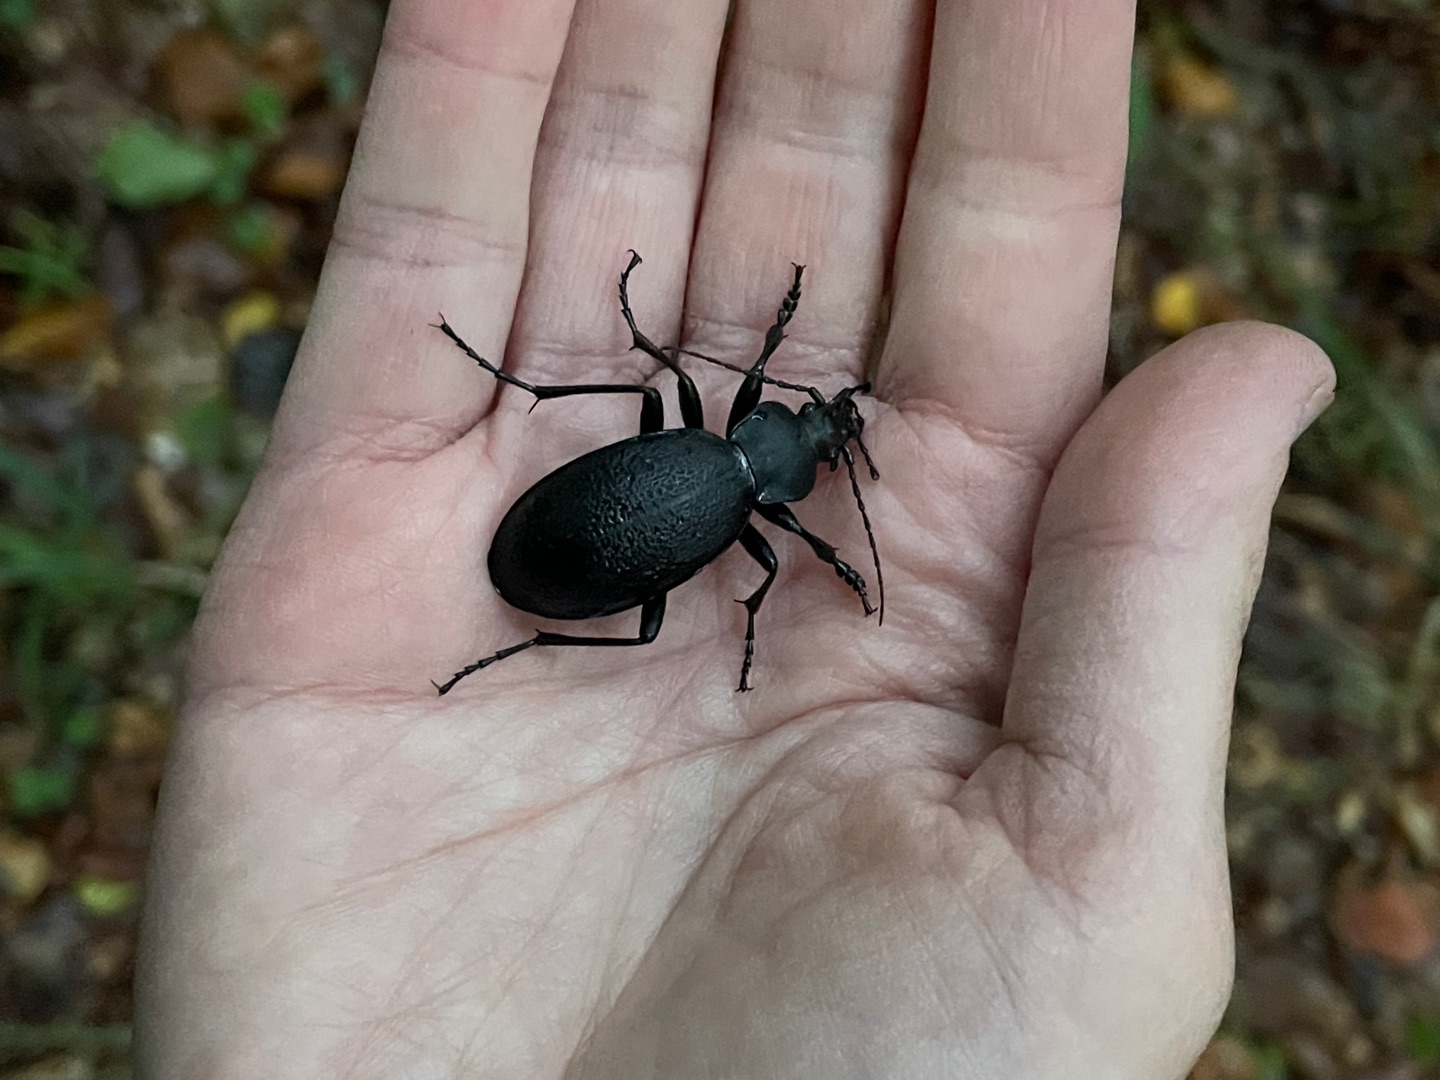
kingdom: Animalia
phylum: Arthropoda
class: Insecta
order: Coleoptera
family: Carabidae
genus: Carabus
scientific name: Carabus coriaceus
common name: Læderløber
